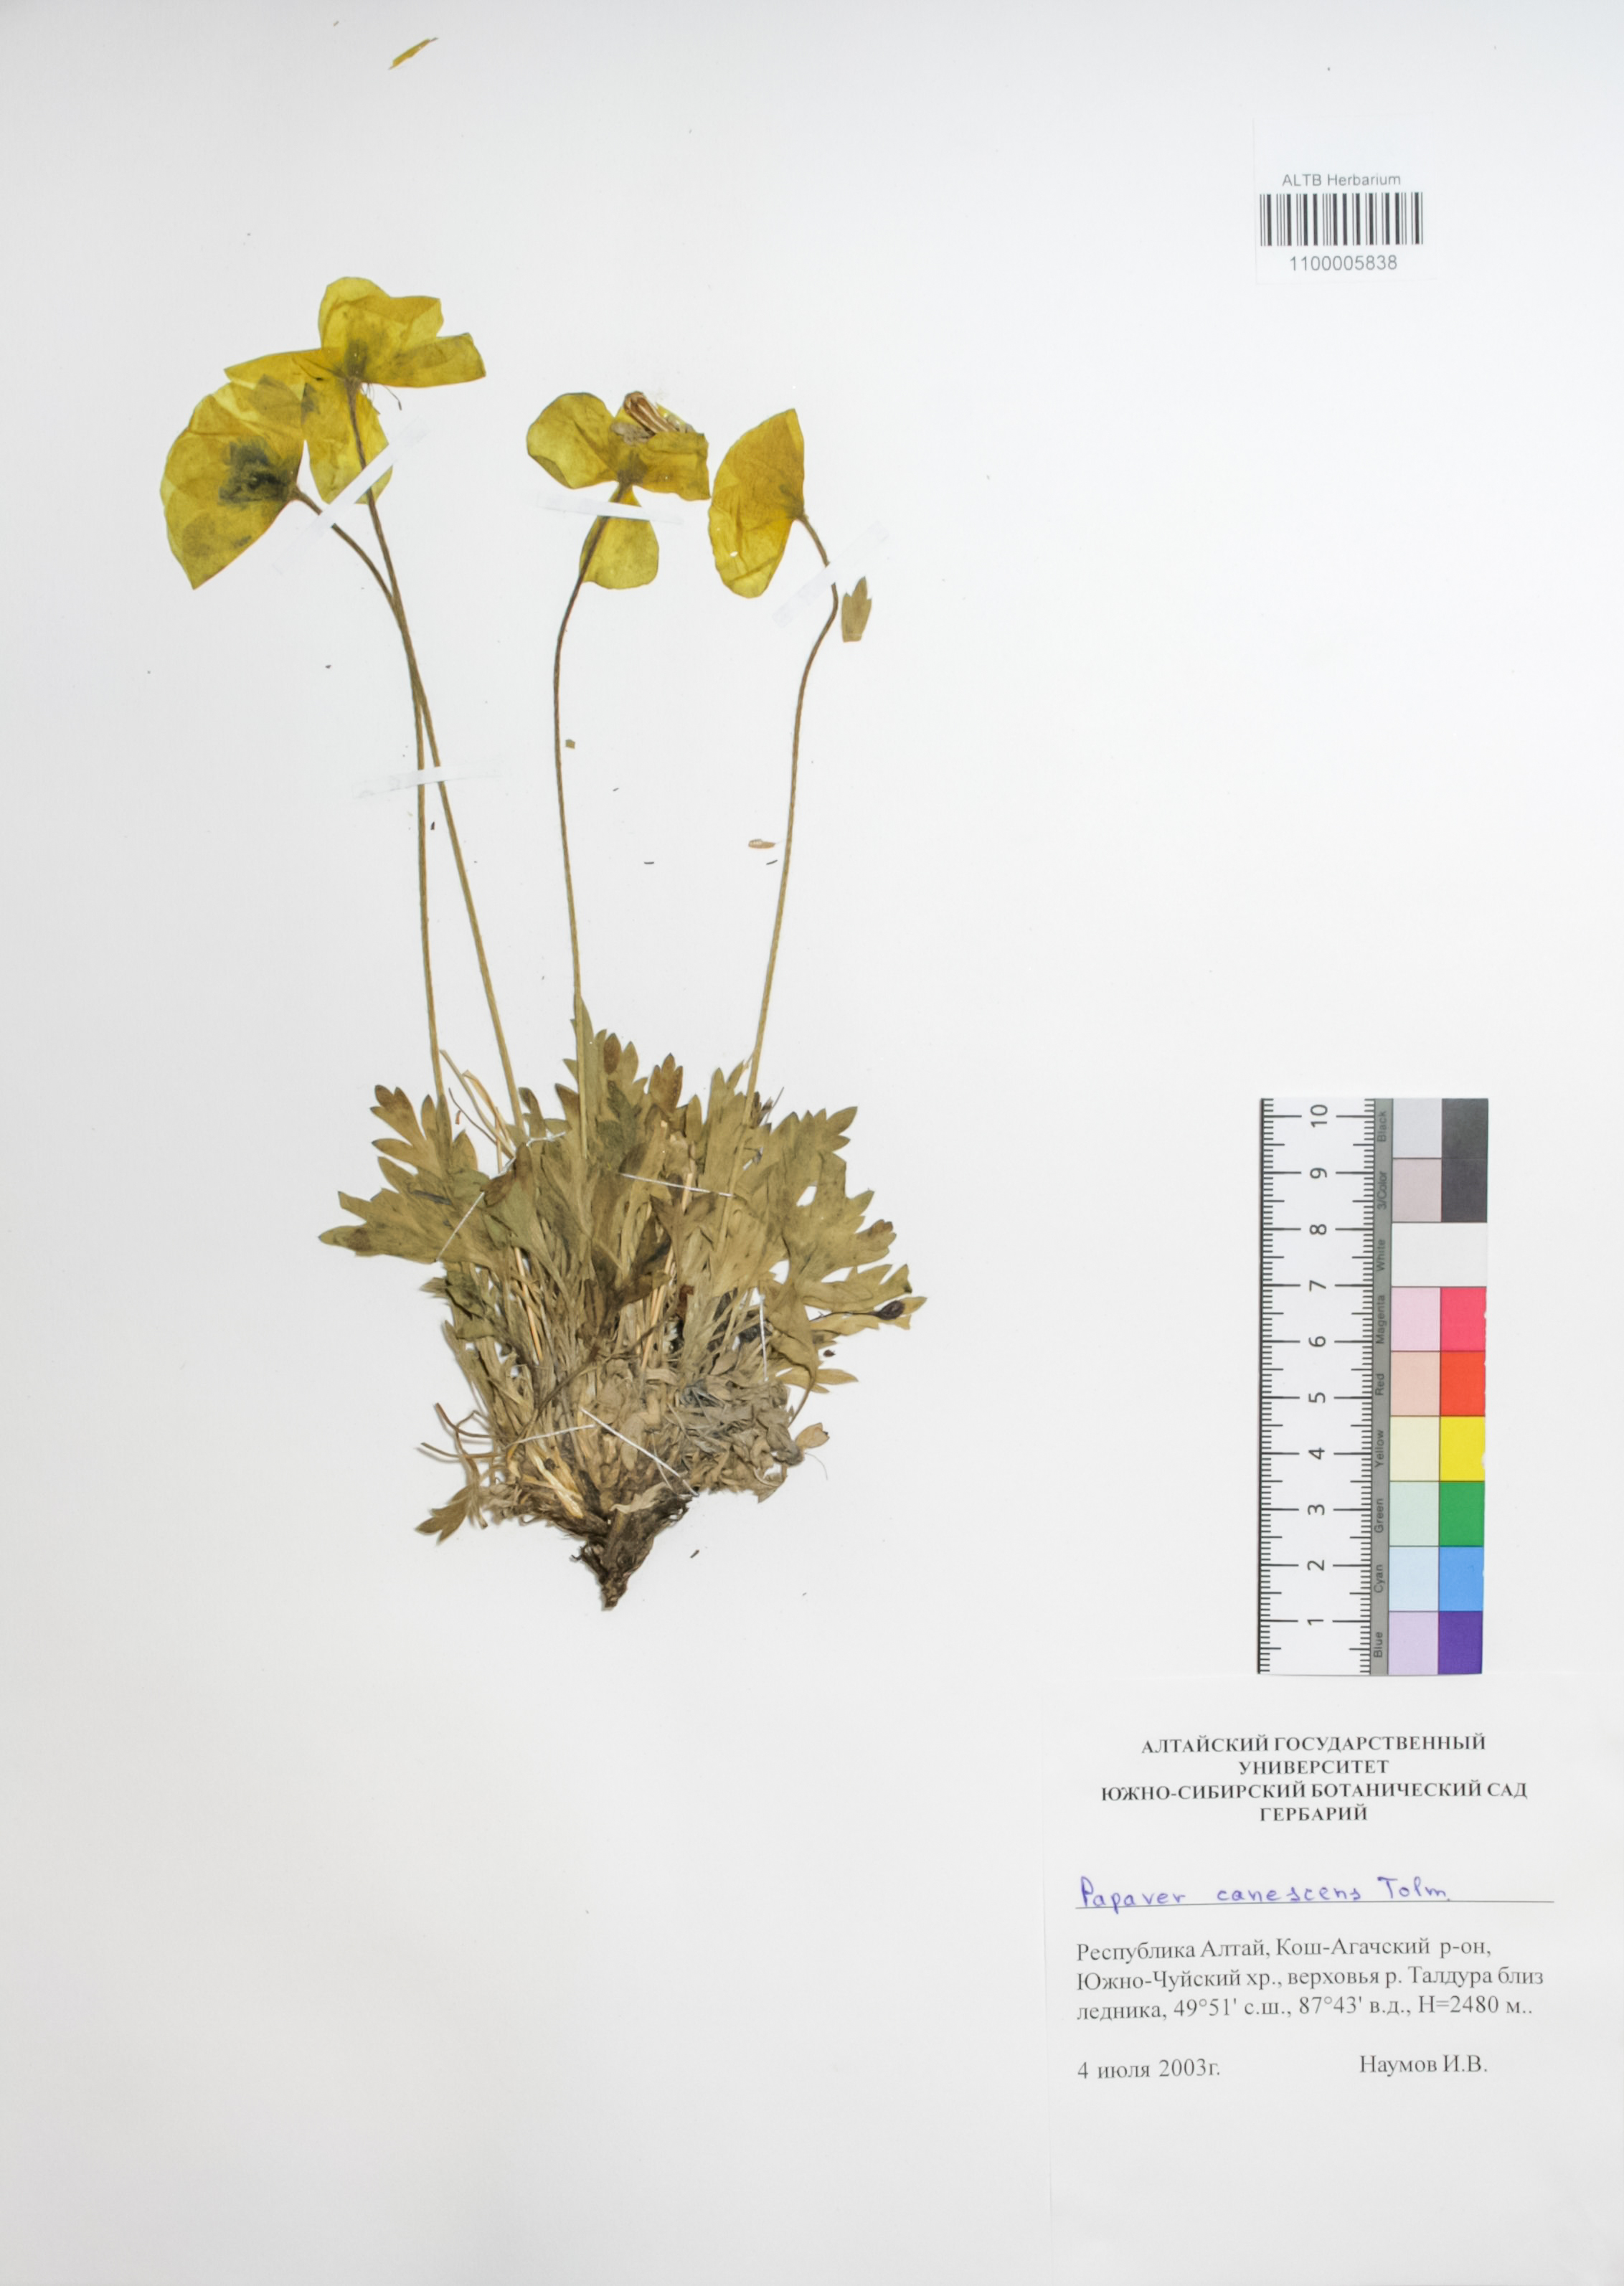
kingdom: Plantae
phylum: Tracheophyta
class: Magnoliopsida
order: Ranunculales
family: Papaveraceae
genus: Papaver
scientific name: Papaver canescens
